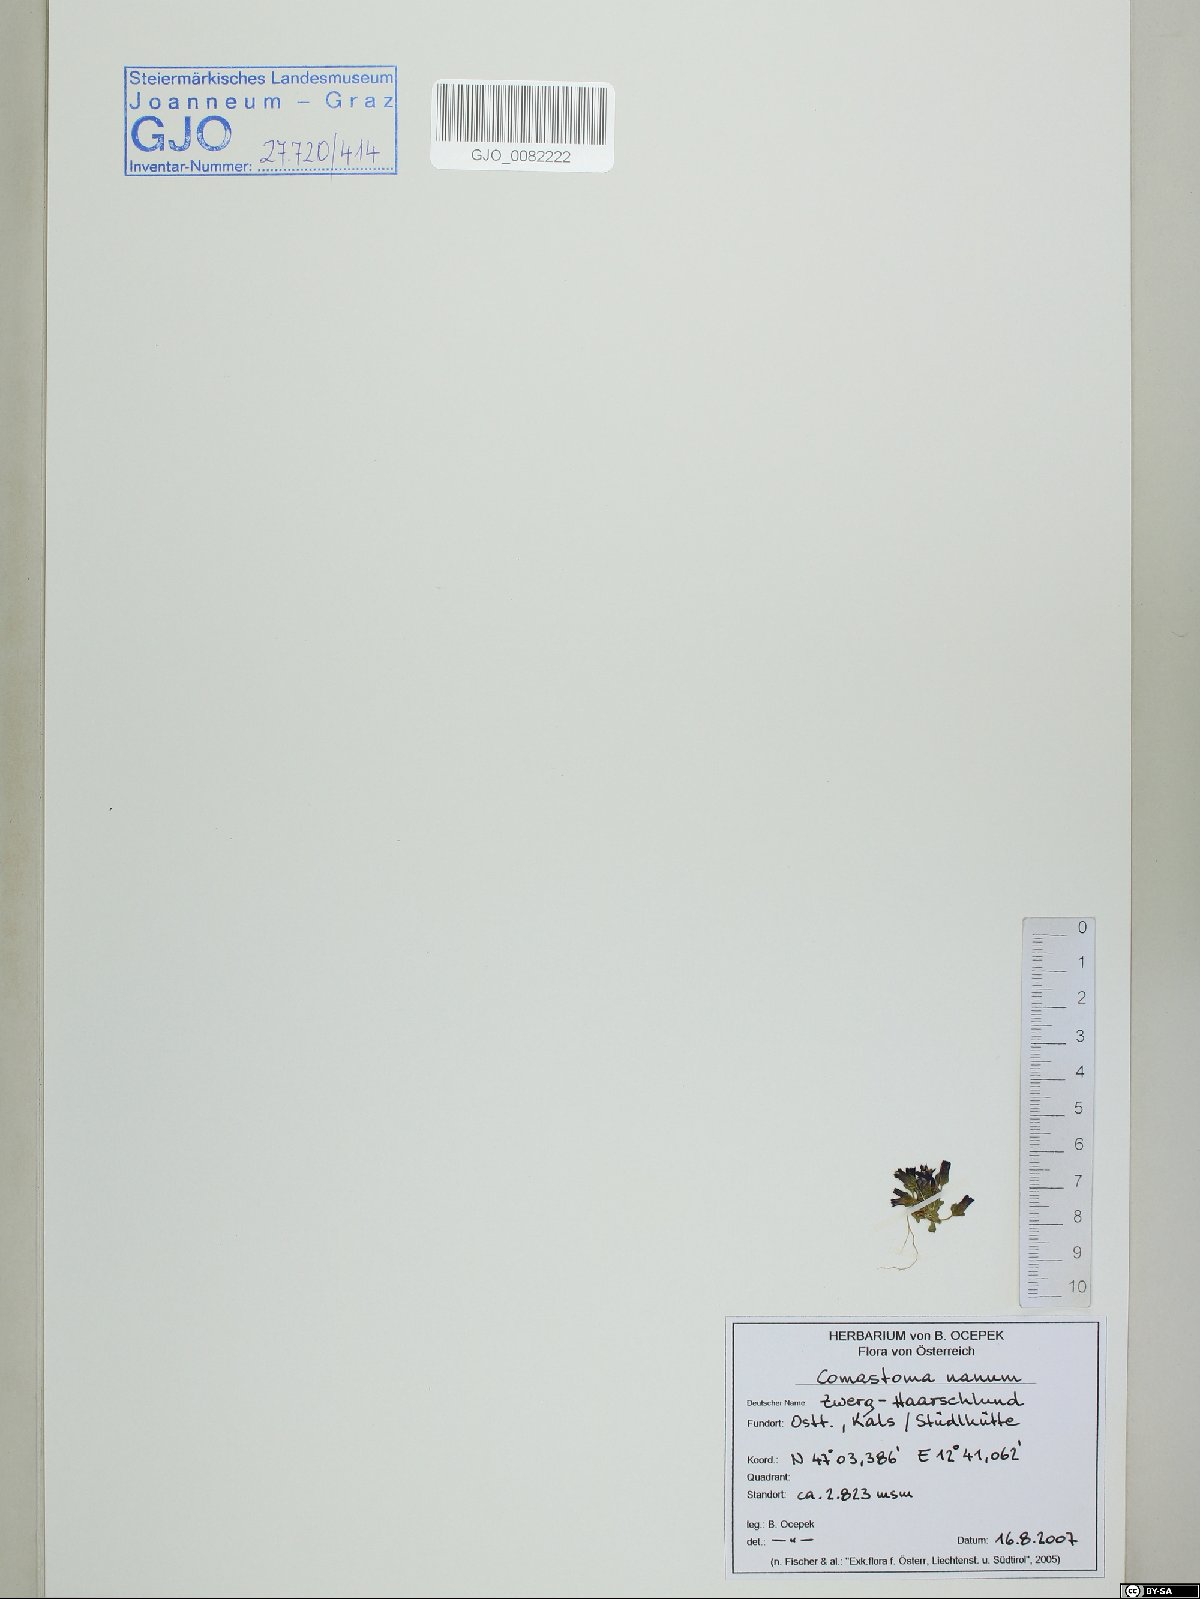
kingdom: Plantae
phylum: Tracheophyta
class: Magnoliopsida
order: Gentianales
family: Gentianaceae
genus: Comastoma
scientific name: Comastoma nanum
